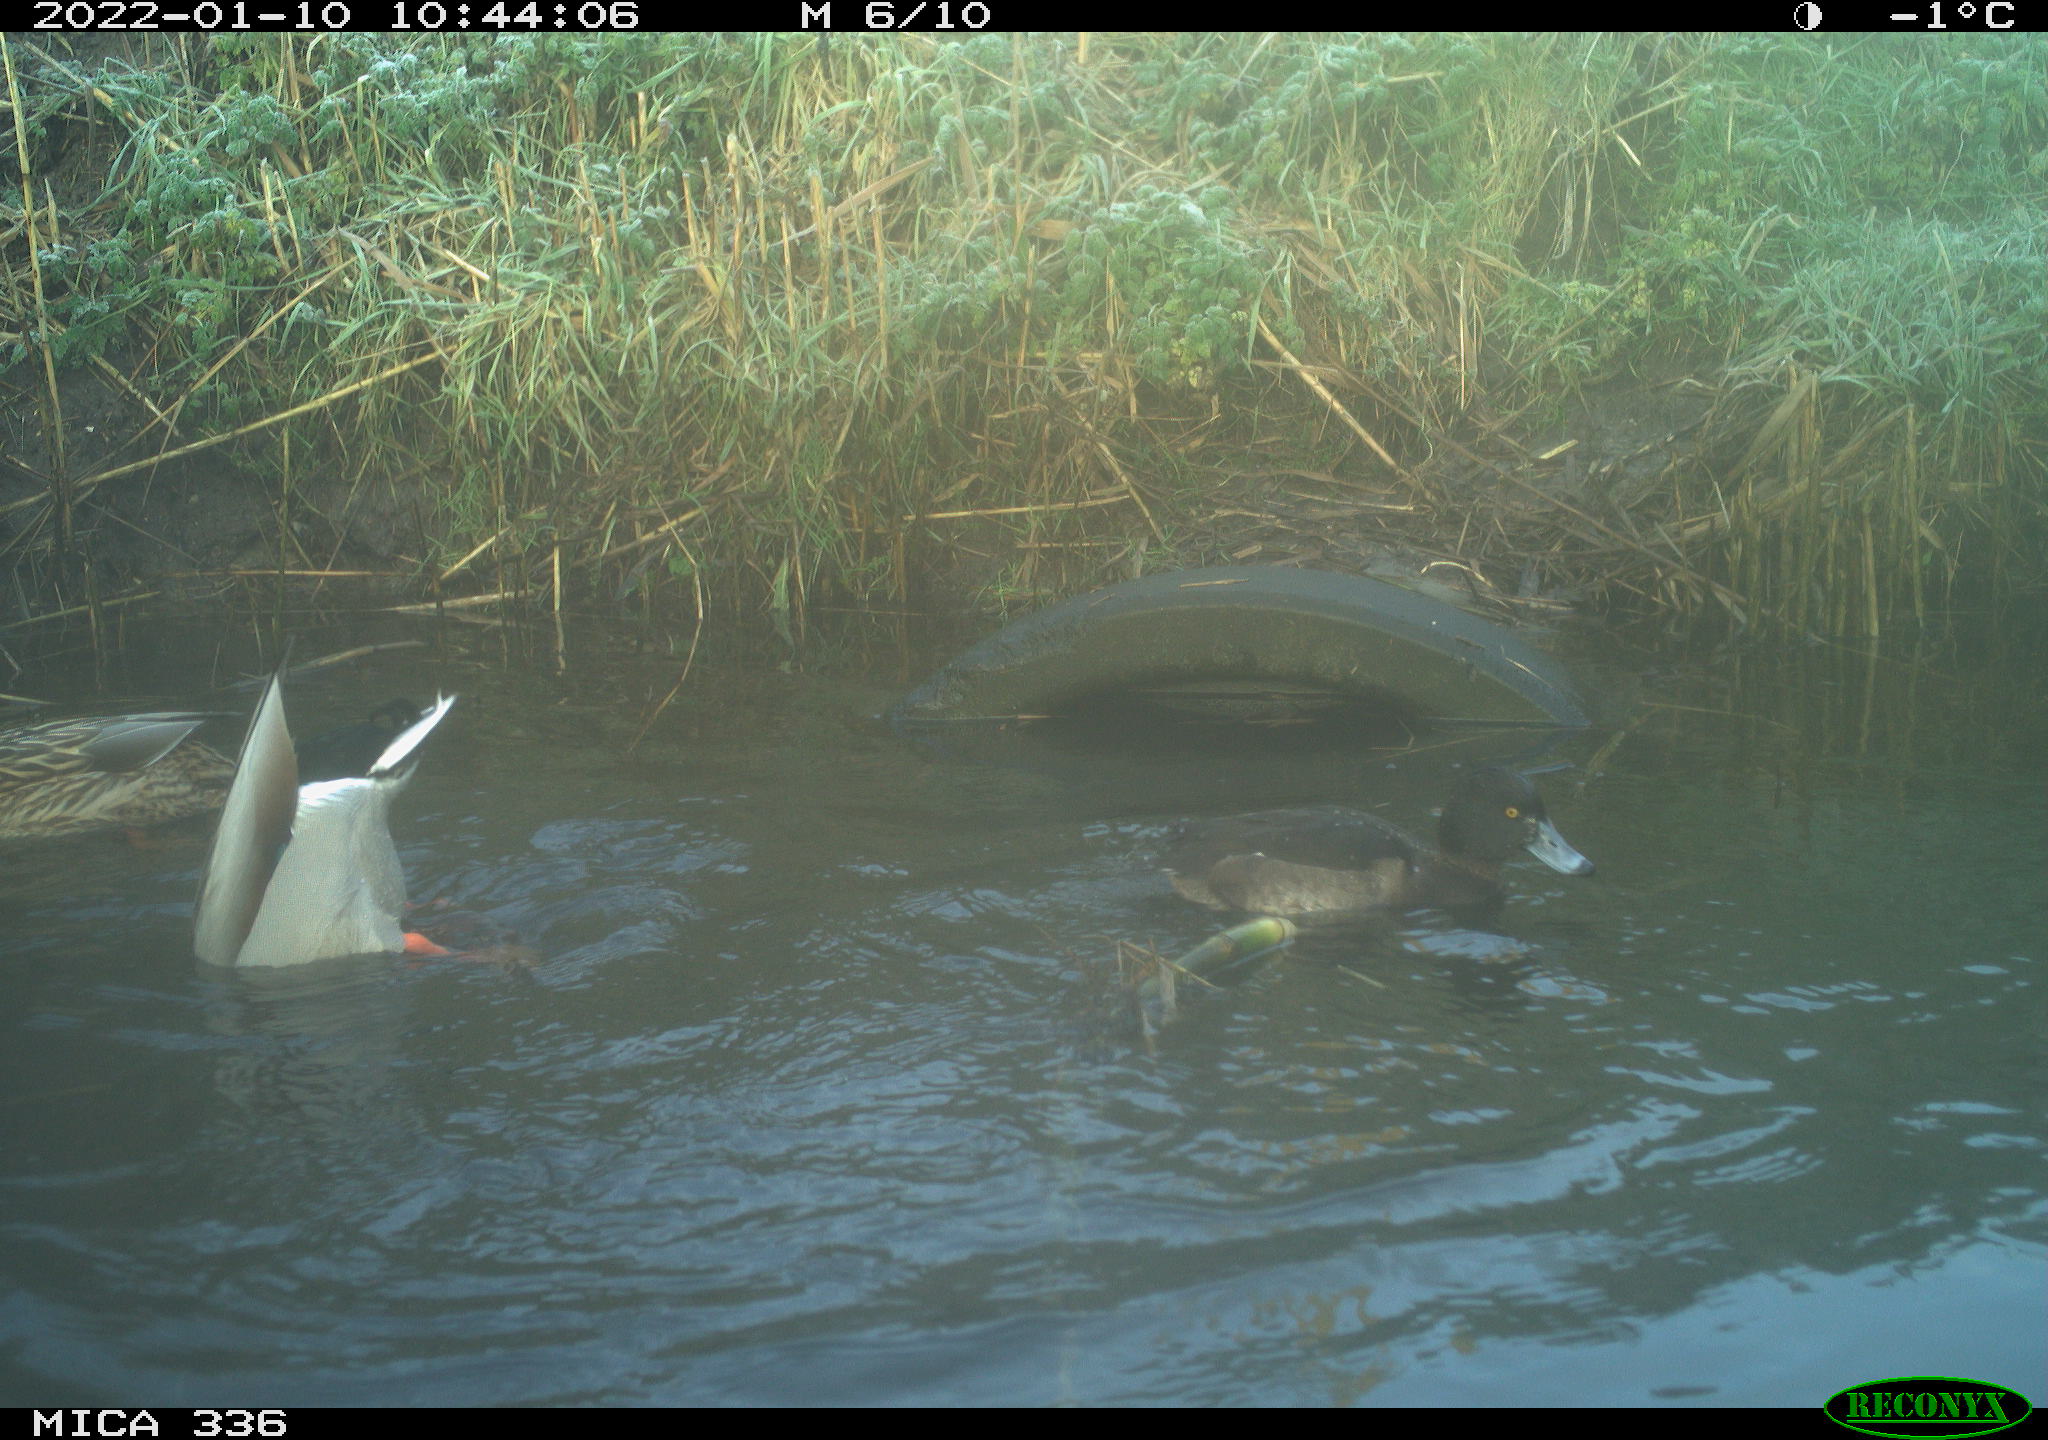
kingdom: Animalia
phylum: Chordata
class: Aves
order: Anseriformes
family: Anatidae
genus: Anas
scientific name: Anas platyrhynchos
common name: Mallard
